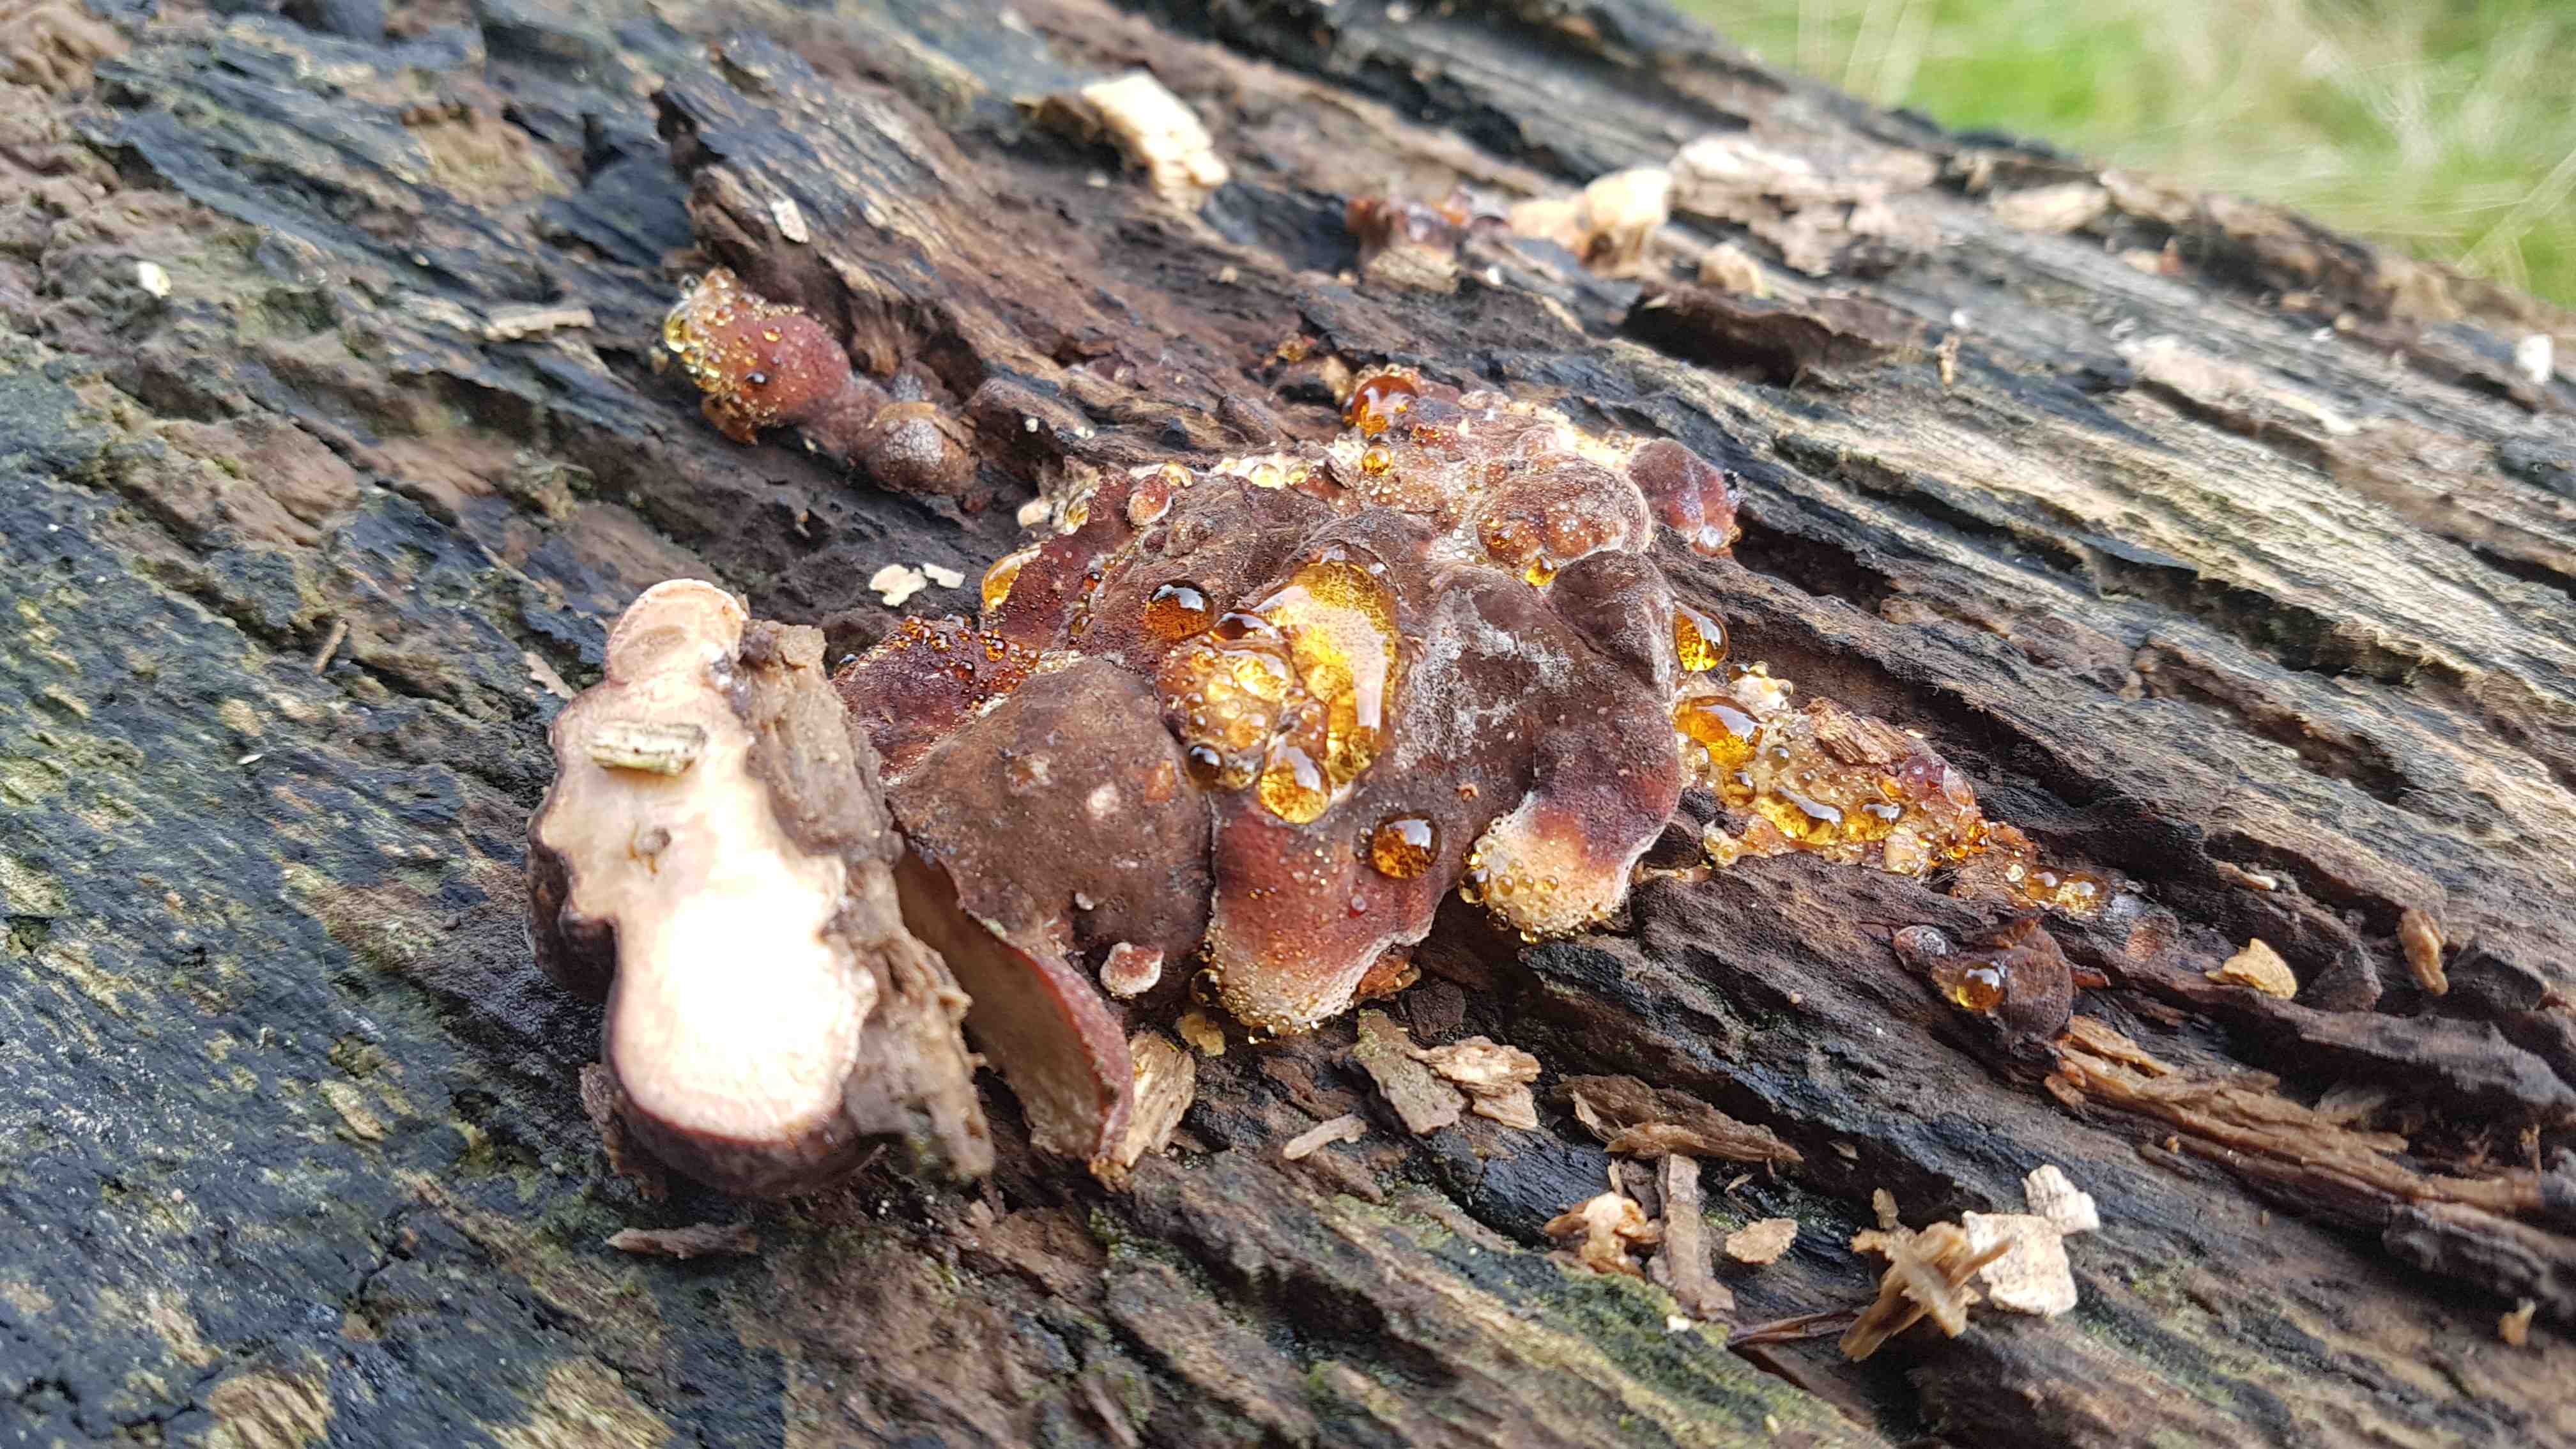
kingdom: Fungi
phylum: Basidiomycota
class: Agaricomycetes
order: Polyporales
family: Ischnodermataceae
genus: Ischnoderma
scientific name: Ischnoderma resinosum
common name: løv-tjæreporesvamp
